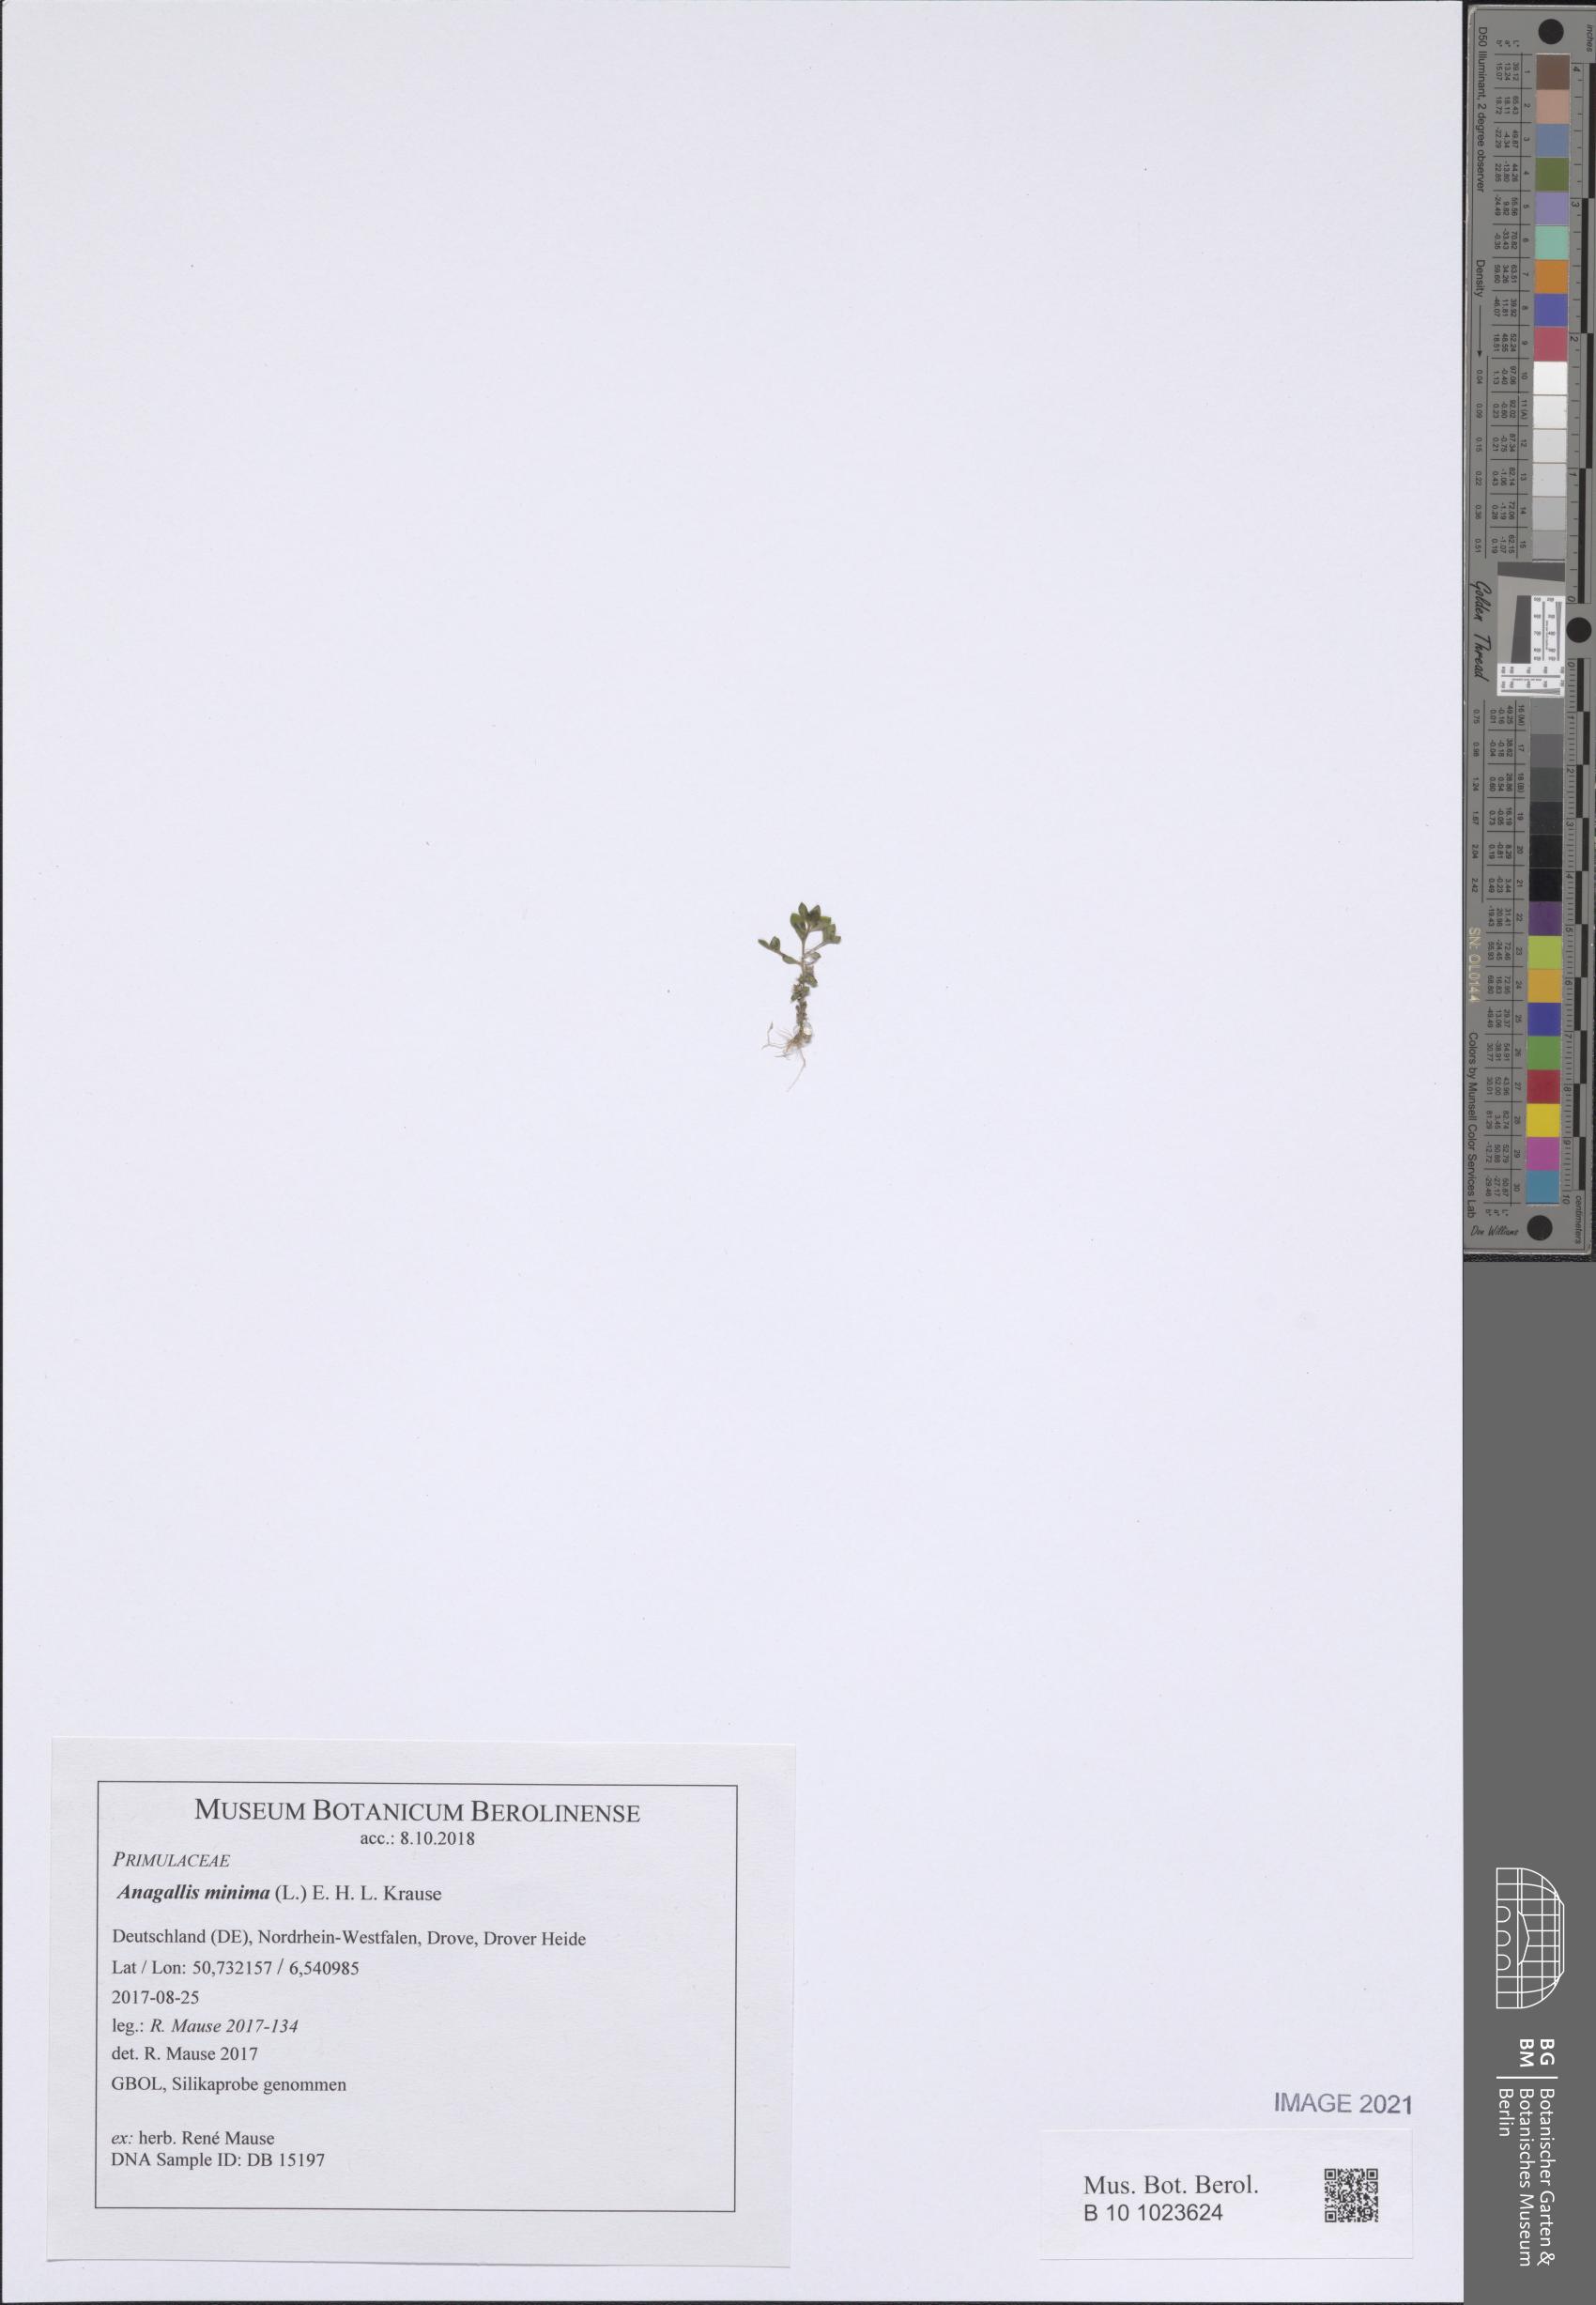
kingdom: Plantae
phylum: Tracheophyta
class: Magnoliopsida
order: Ericales
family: Primulaceae
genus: Lysimachia
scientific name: Lysimachia minima
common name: Chaffweed
